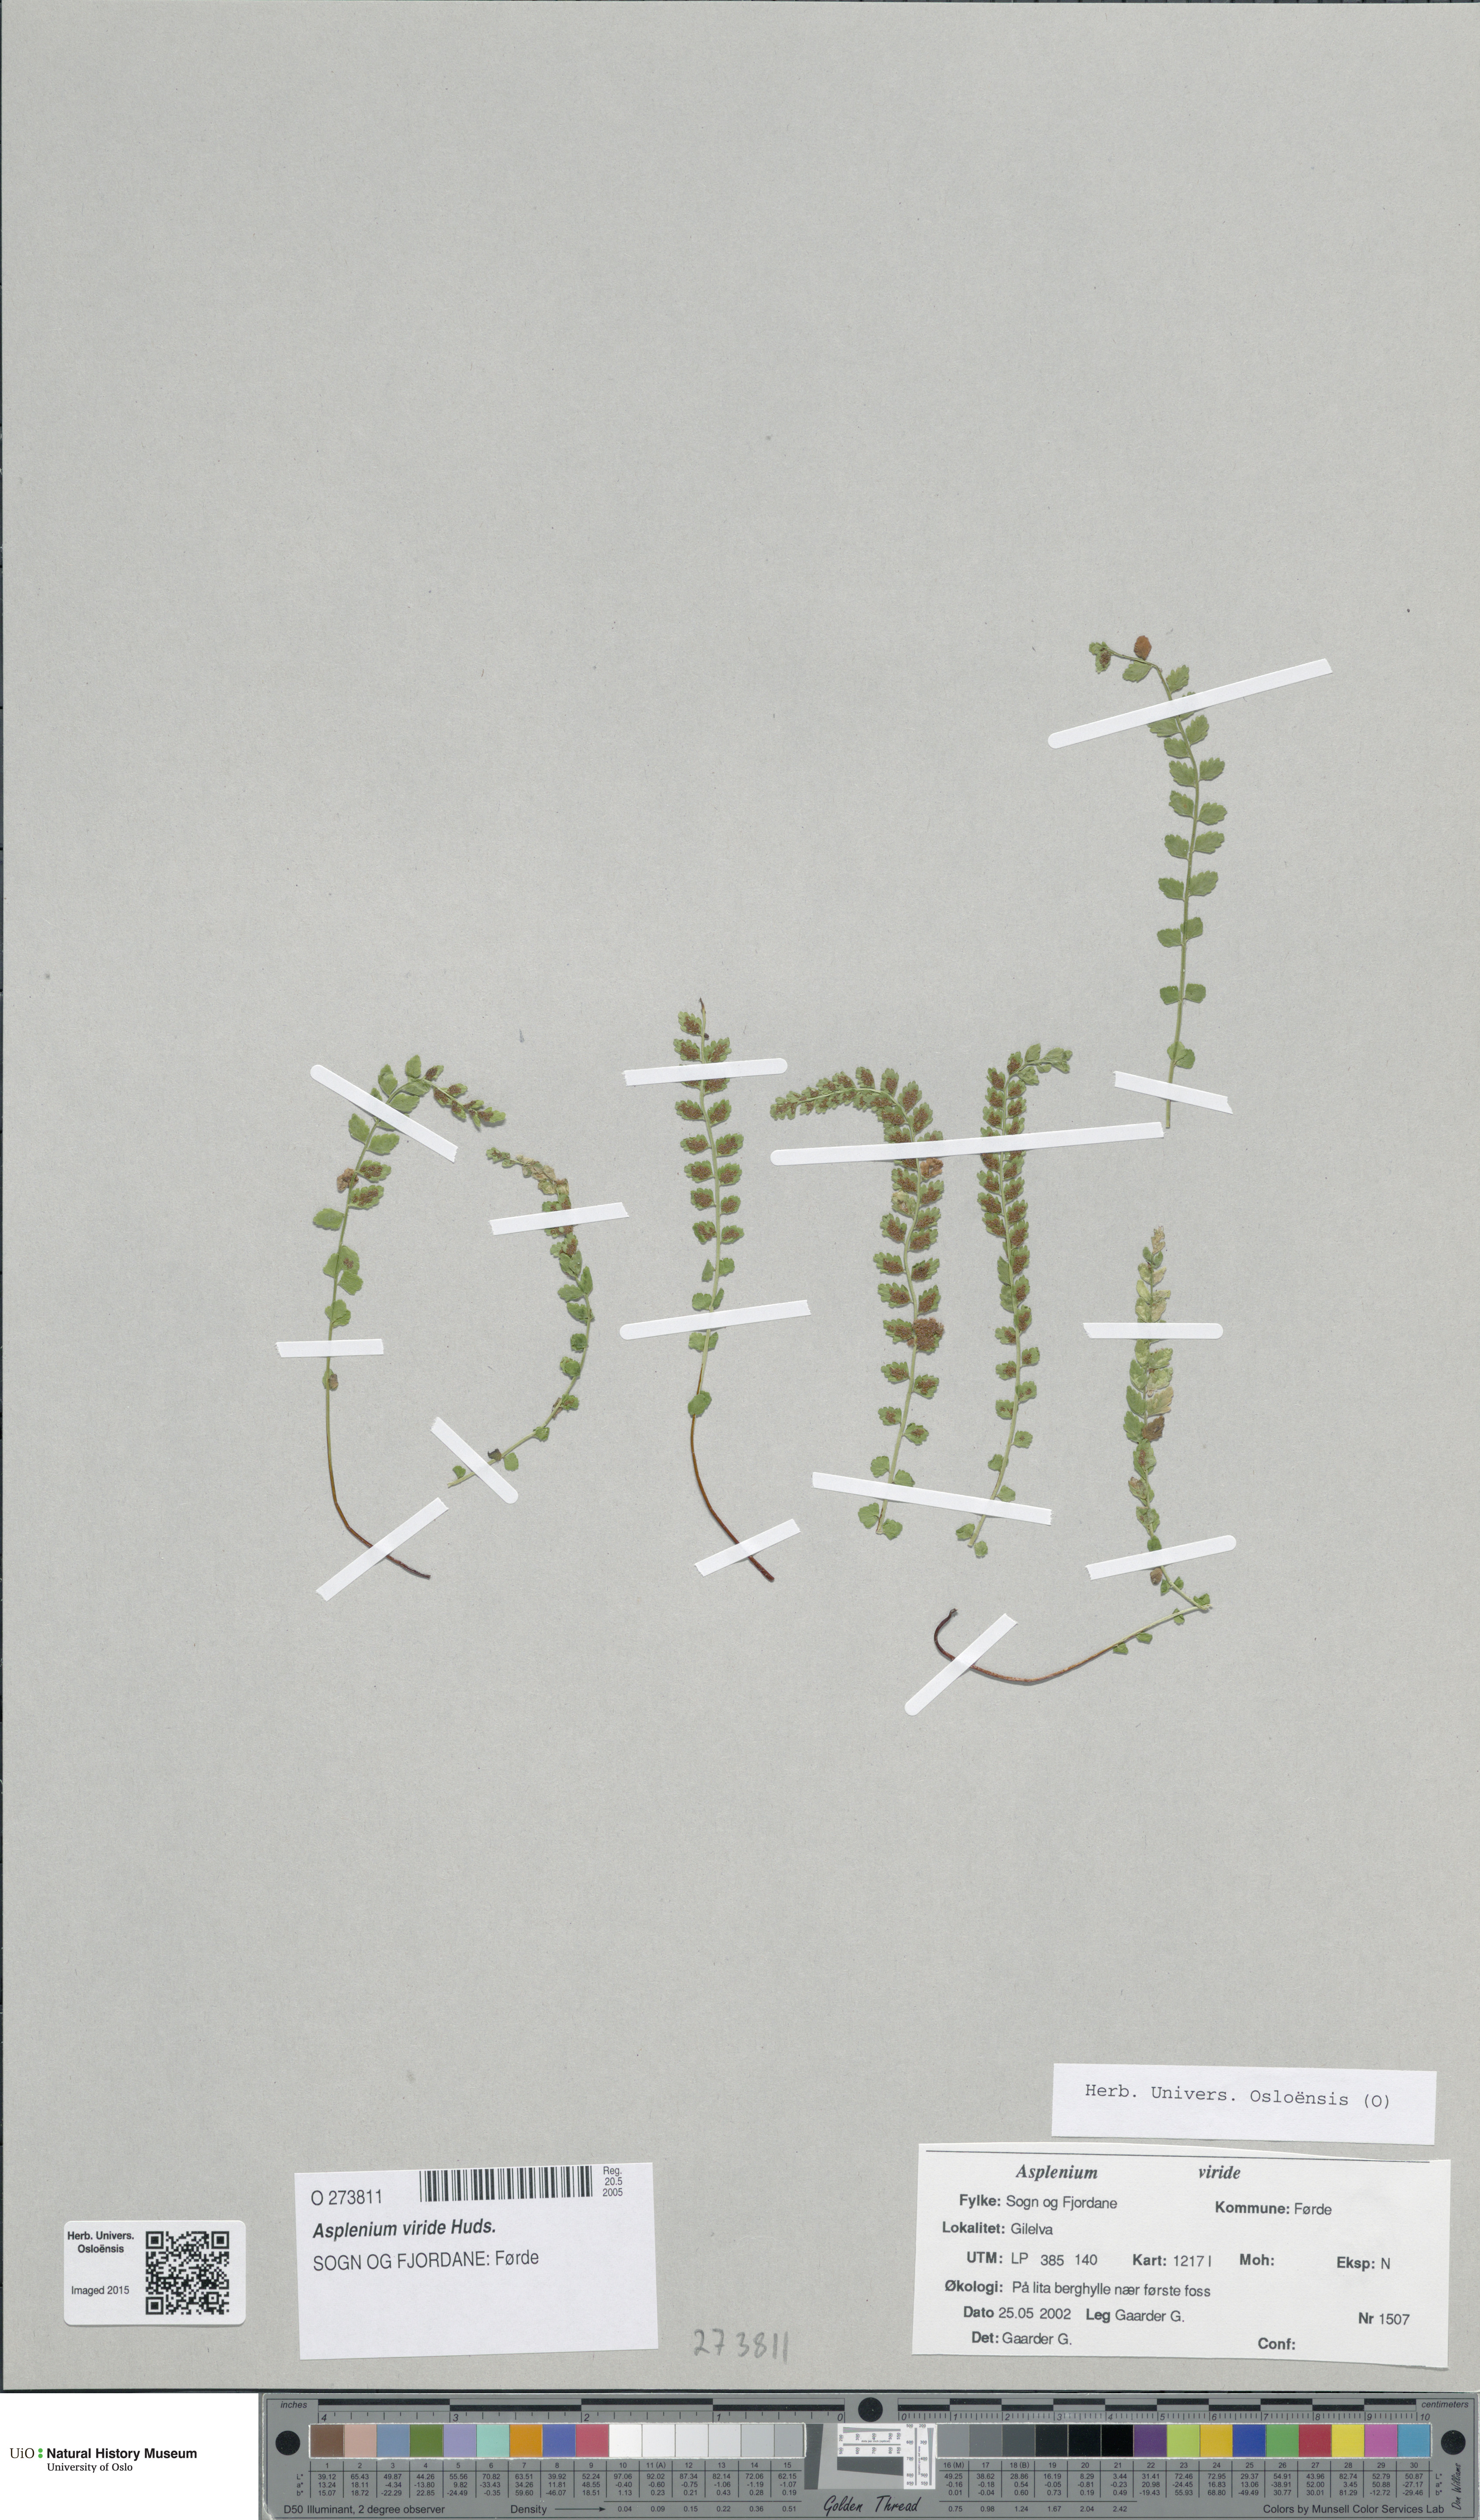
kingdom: Plantae
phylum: Tracheophyta
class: Polypodiopsida
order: Polypodiales
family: Aspleniaceae
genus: Asplenium
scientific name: Asplenium viride
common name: Green spleenwort
